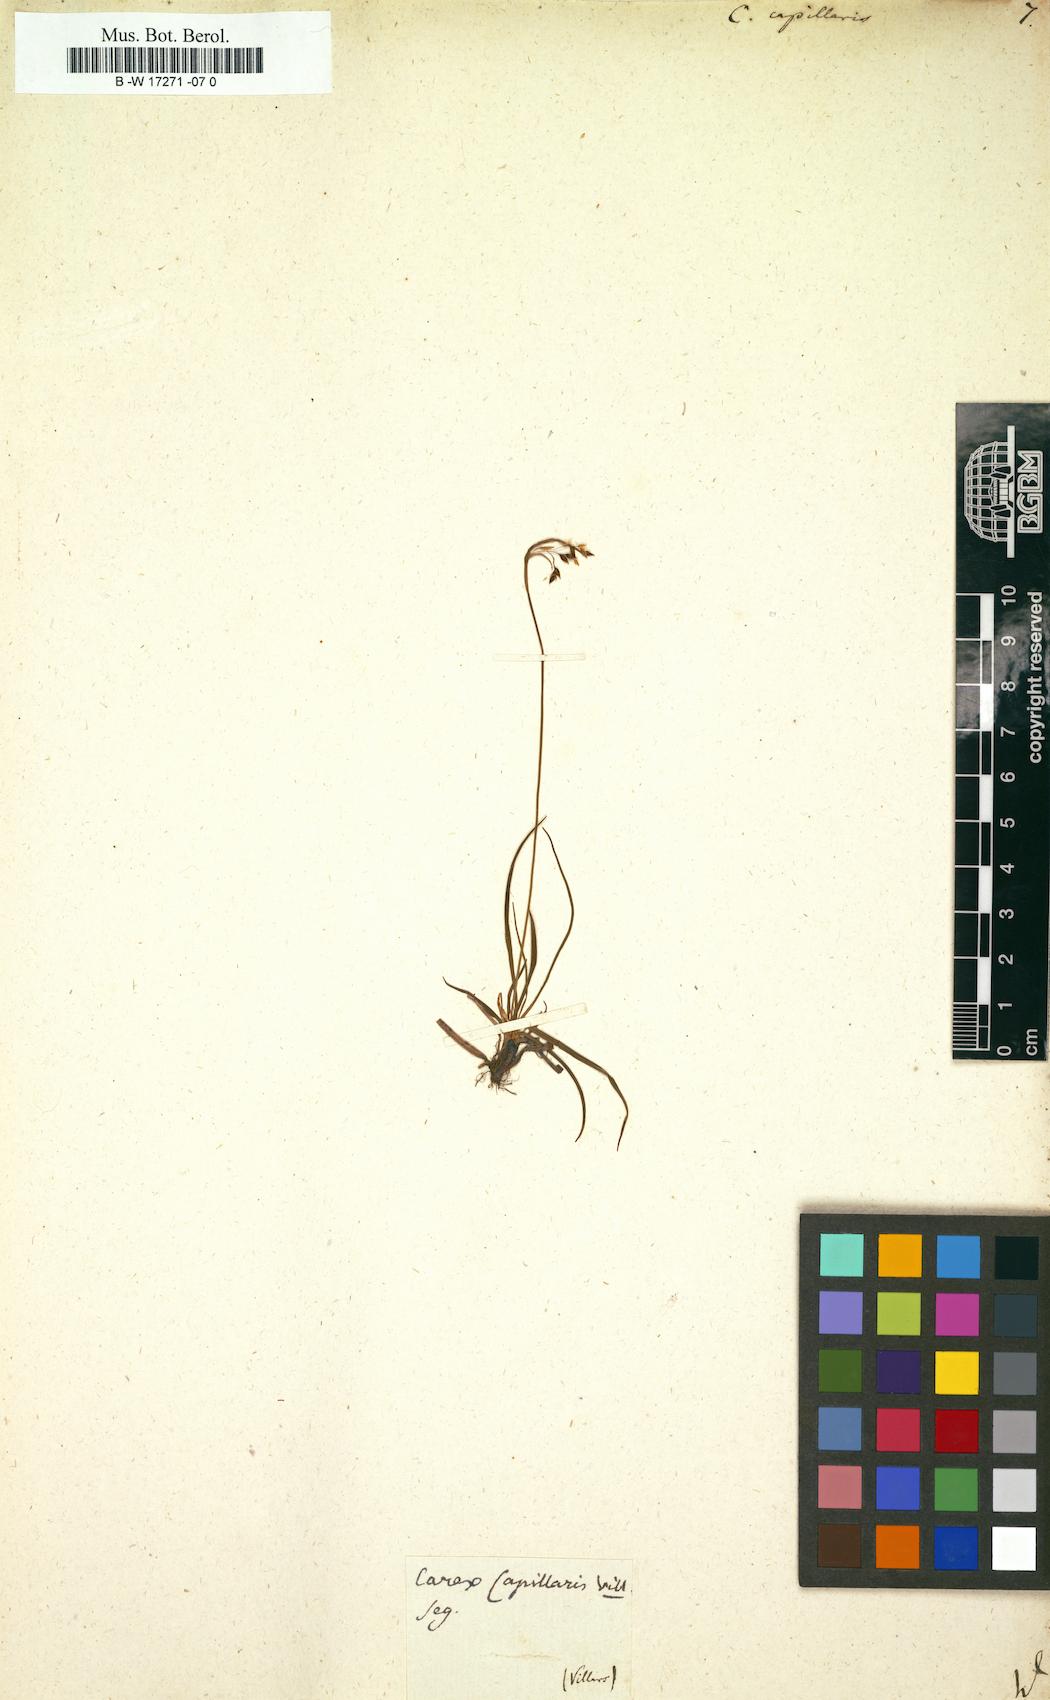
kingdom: Plantae
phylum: Tracheophyta
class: Liliopsida
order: Poales
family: Cyperaceae
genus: Carex
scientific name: Carex capillaris
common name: Hair sedge
